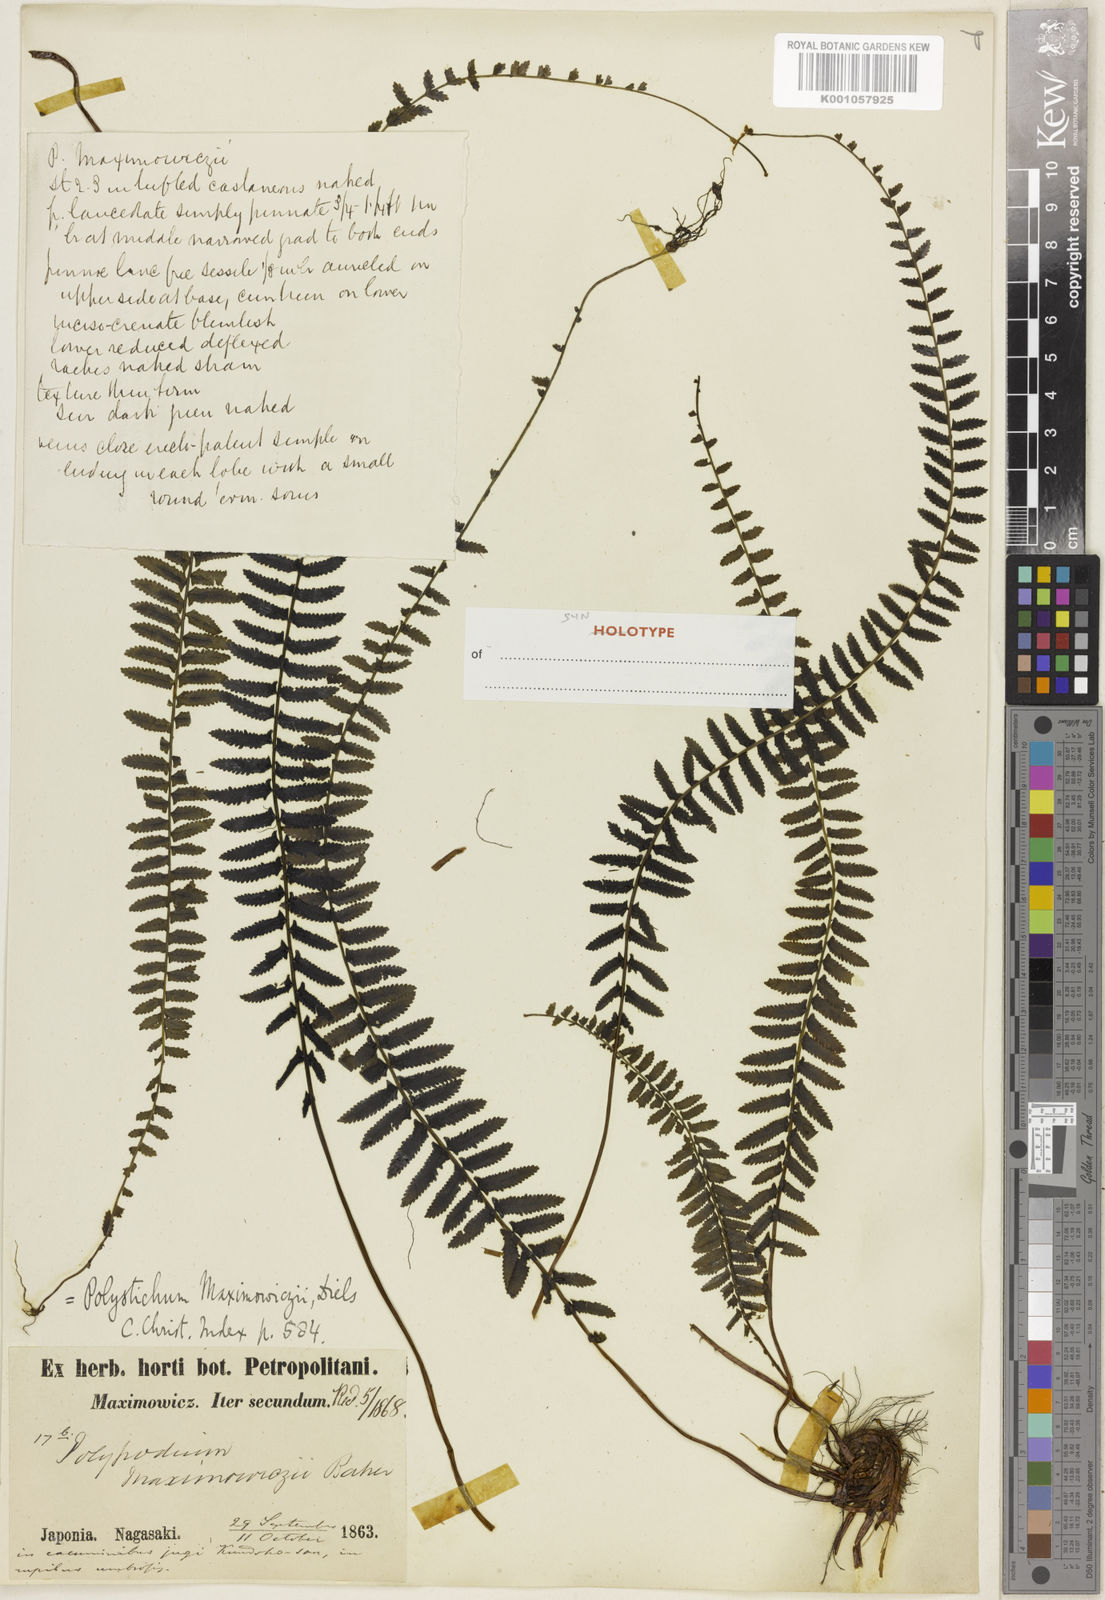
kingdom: Plantae
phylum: Tracheophyta
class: Polypodiopsida
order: Polypodiales
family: Dennstaedtiaceae
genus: Monachosorum
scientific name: Monachosorum maximowiczii
